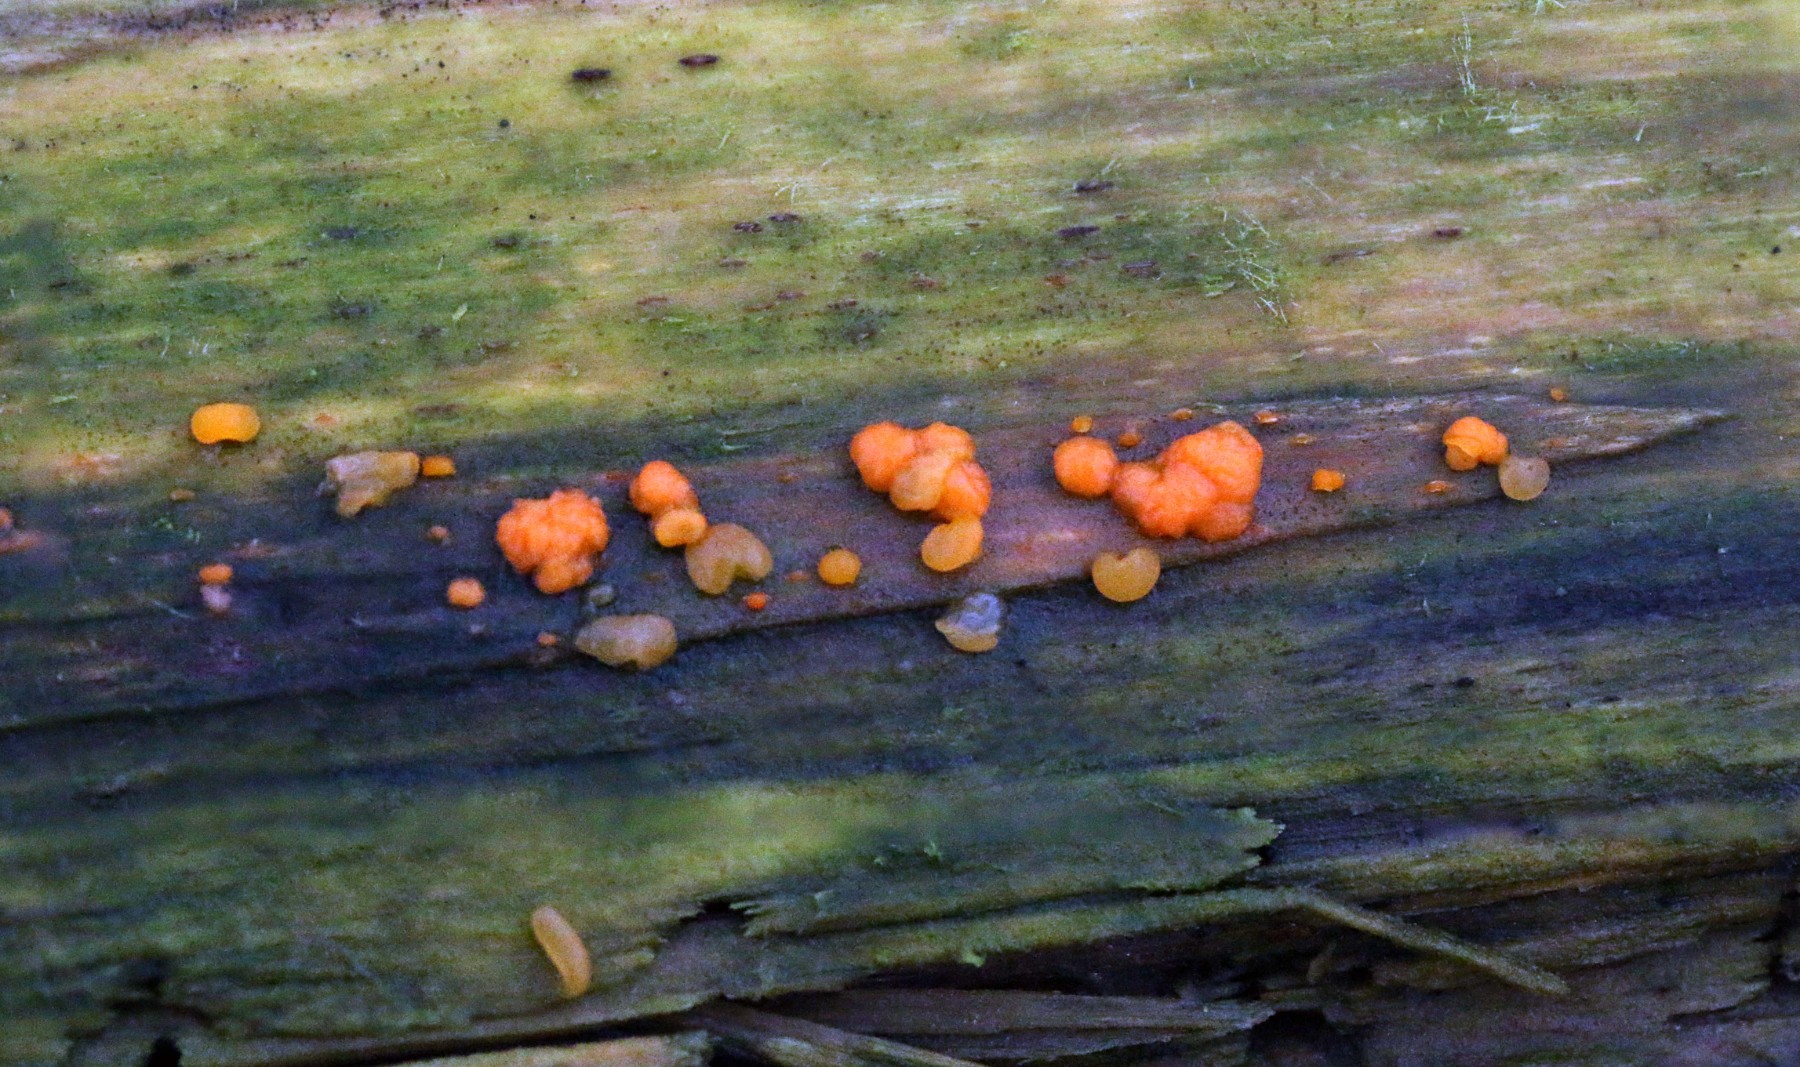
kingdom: Fungi
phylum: Basidiomycota
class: Dacrymycetes
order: Dacrymycetales
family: Dacrymycetaceae
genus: Dacrymyces
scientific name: Dacrymyces stillatus
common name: almindelig tåresvamp
